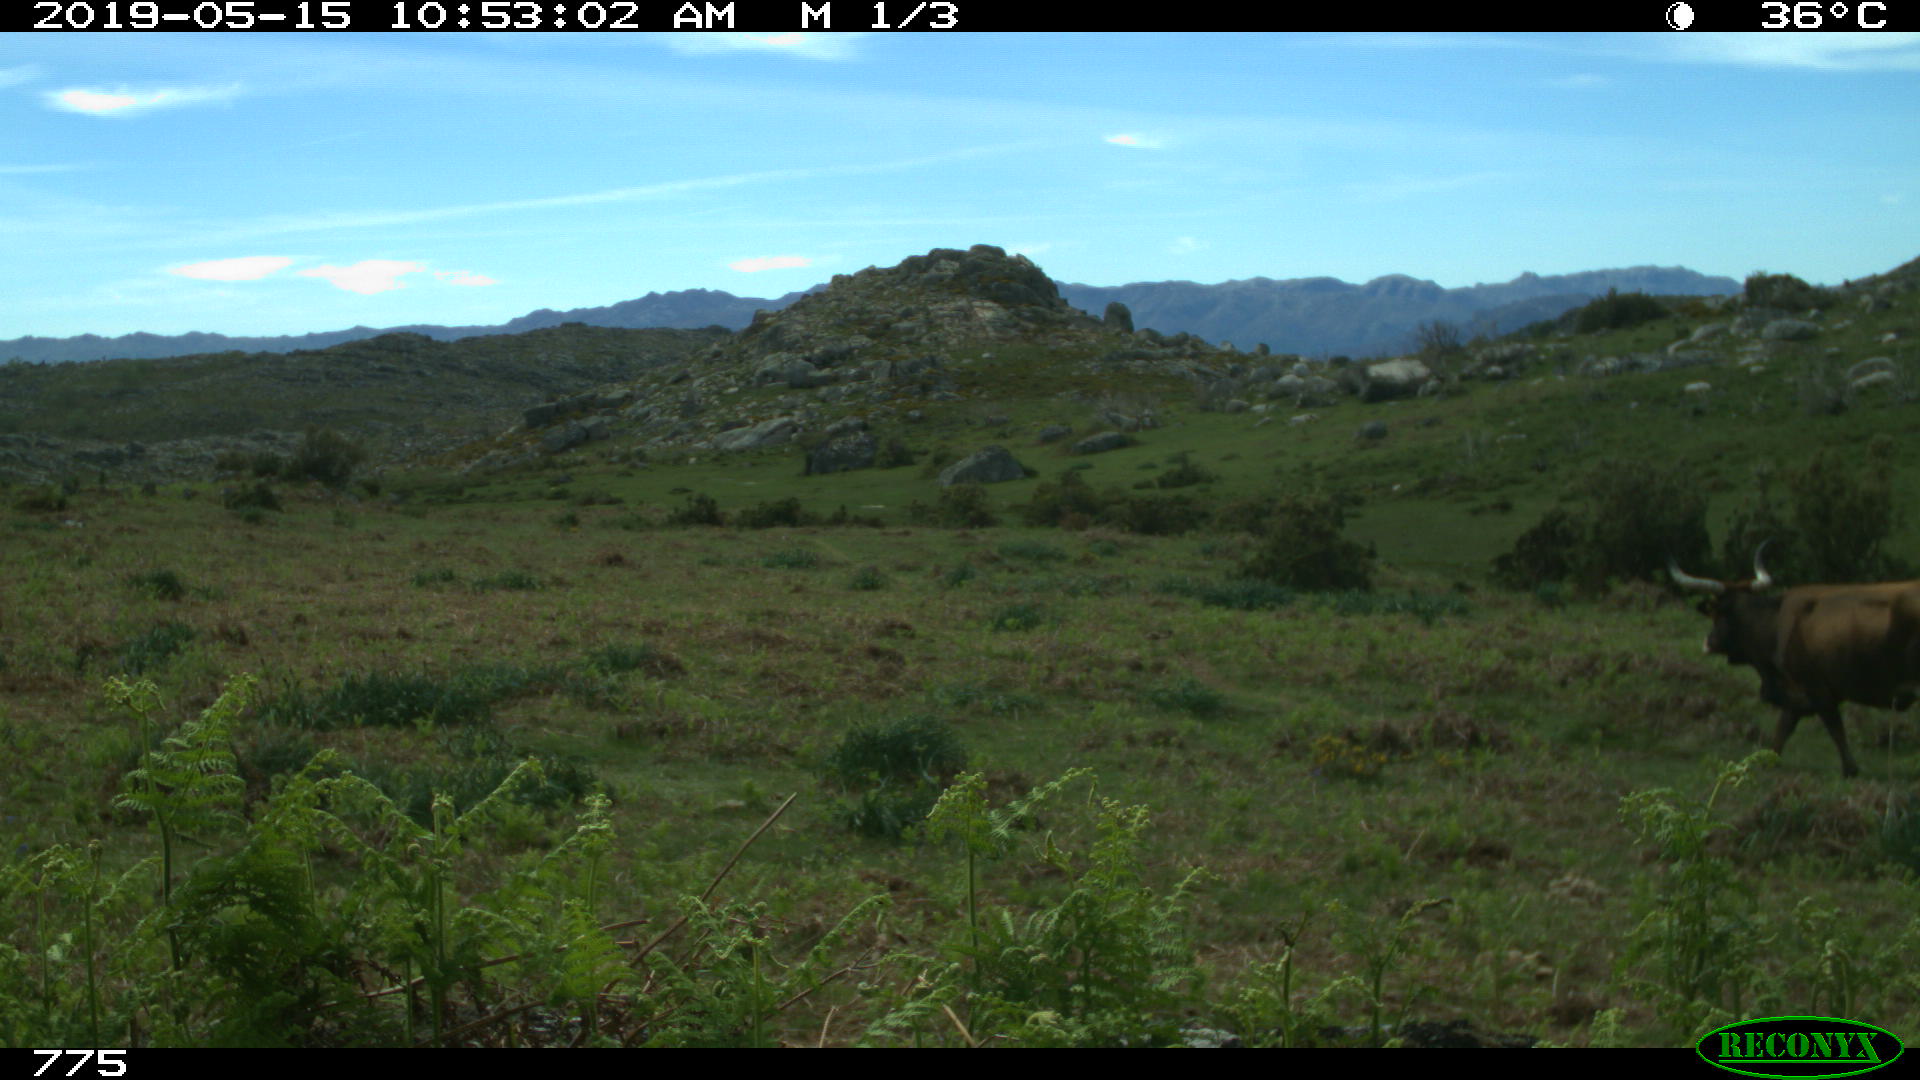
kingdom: Animalia
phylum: Chordata
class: Mammalia
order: Artiodactyla
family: Bovidae
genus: Bos
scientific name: Bos taurus
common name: Domesticated cattle
